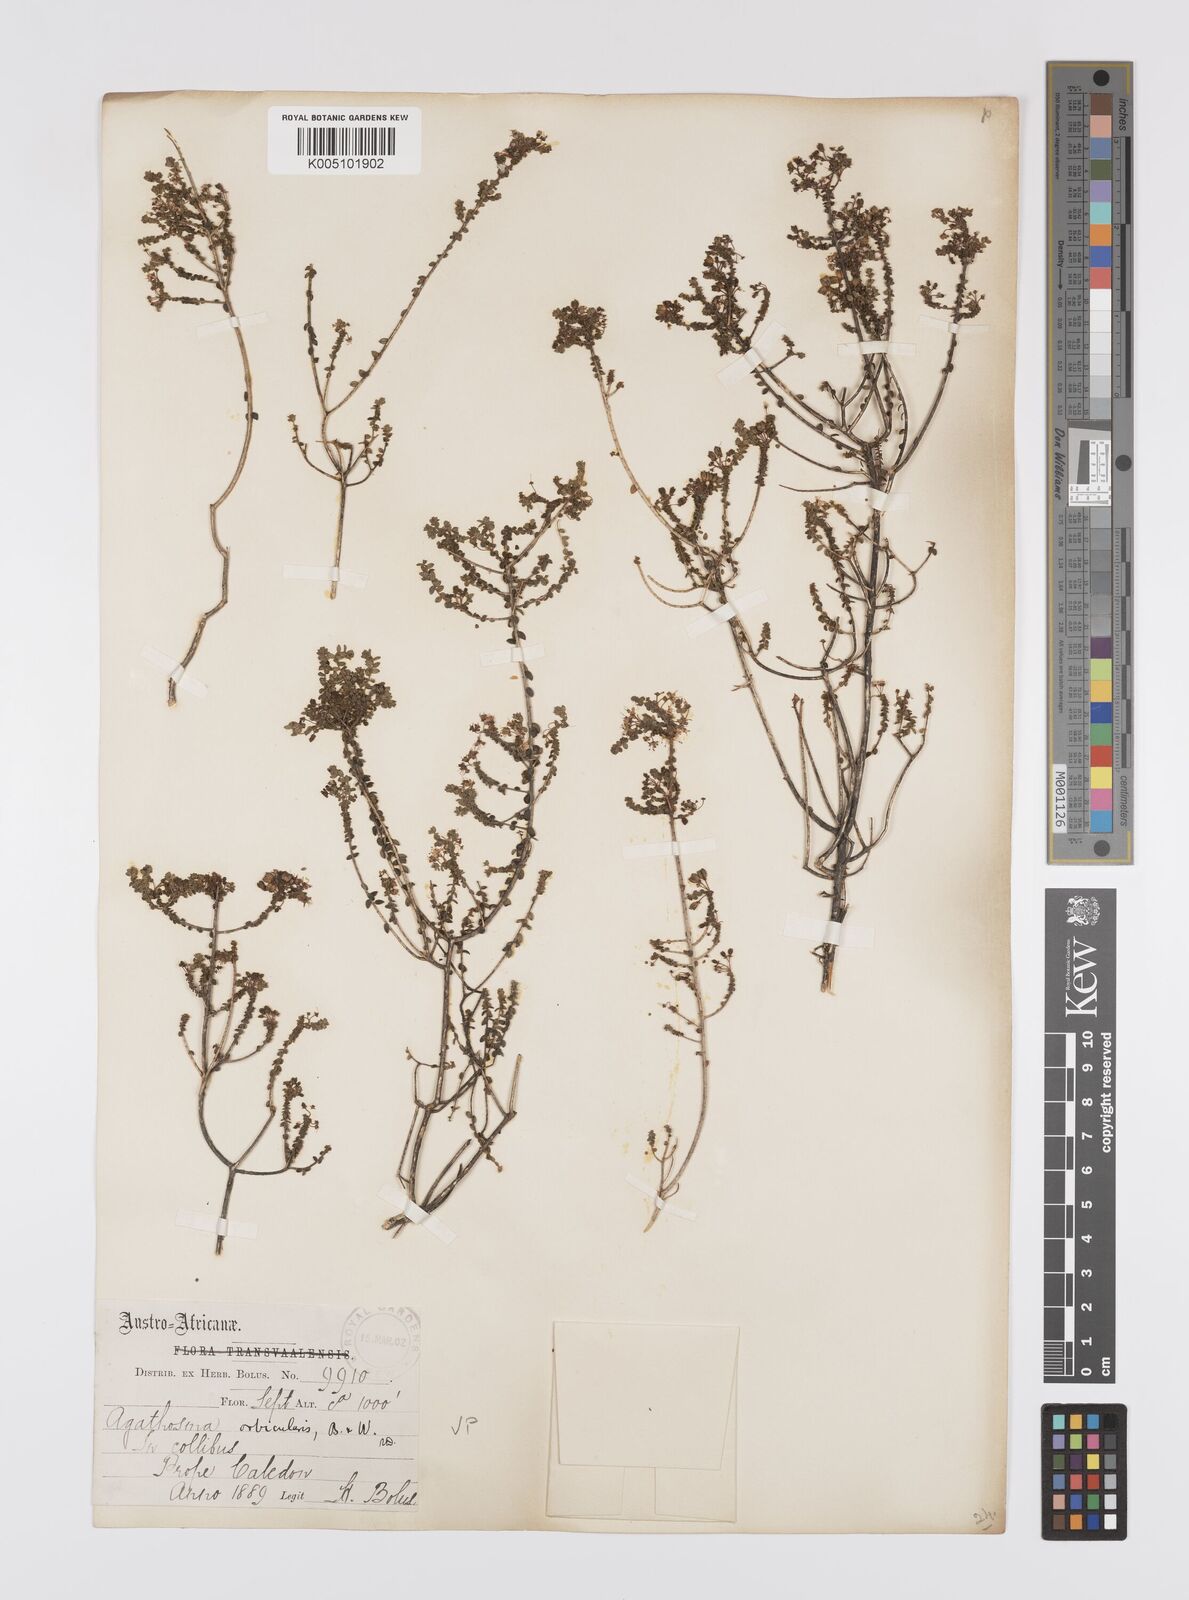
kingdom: Plantae
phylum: Tracheophyta
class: Magnoliopsida
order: Sapindales
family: Rutaceae
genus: Agathosma
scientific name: Agathosma orbicularis
